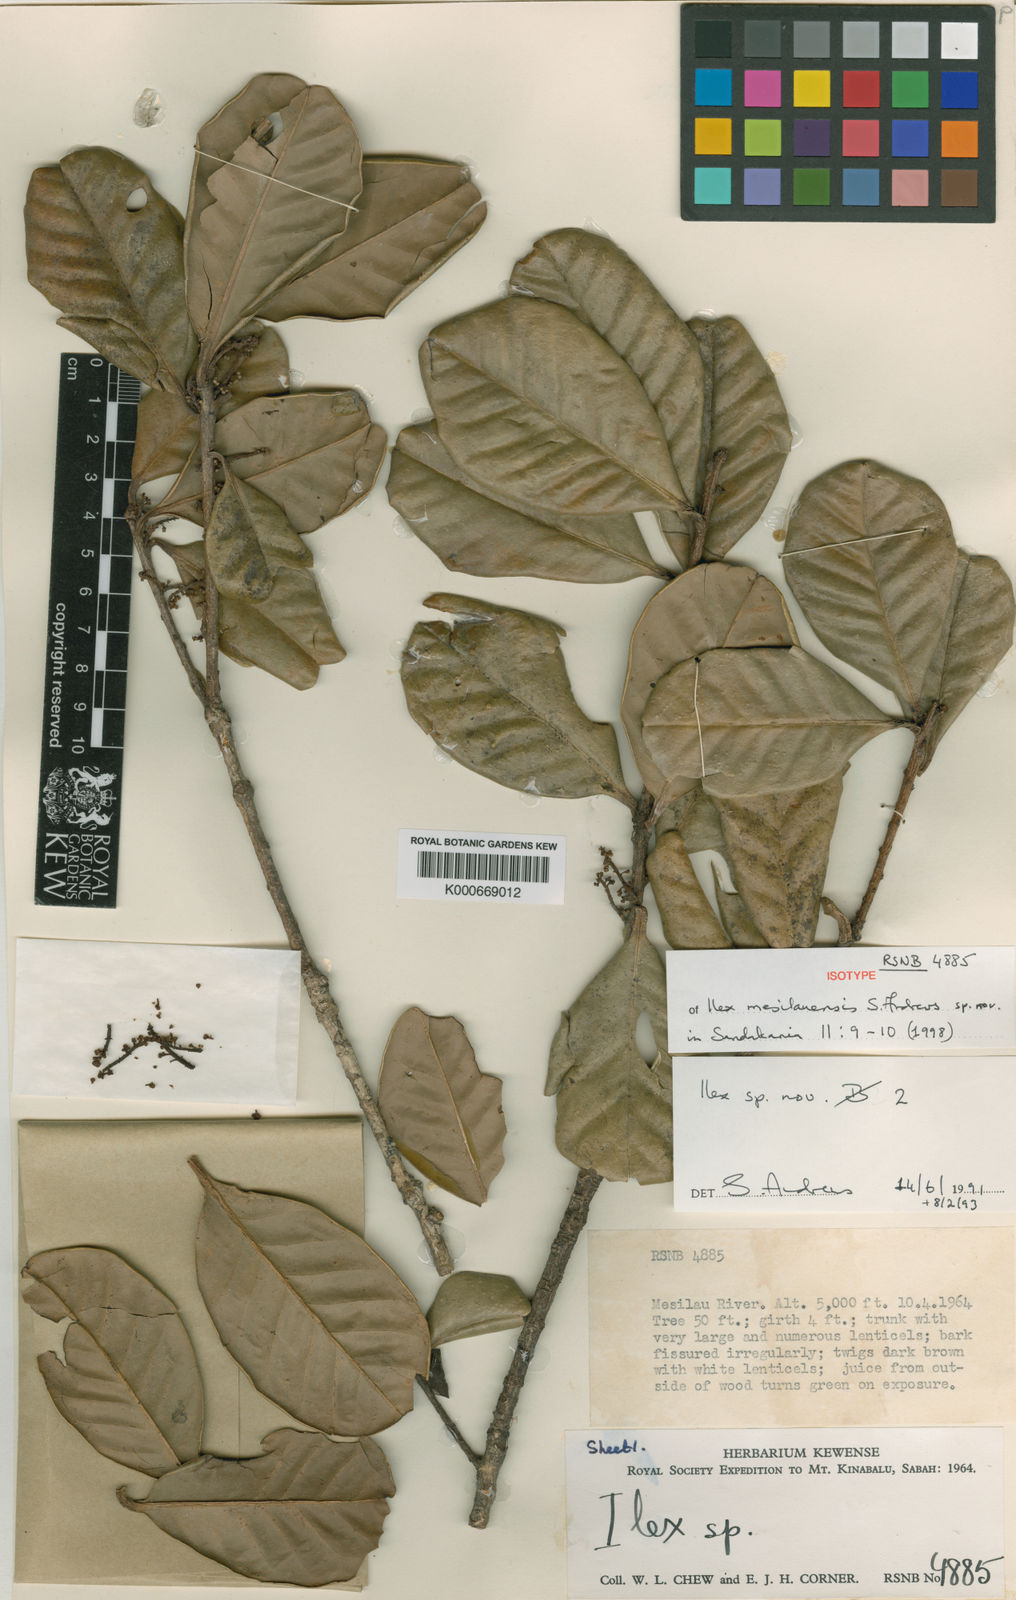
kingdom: Plantae
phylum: Tracheophyta
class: Magnoliopsida
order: Aquifoliales
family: Aquifoliaceae
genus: Ilex
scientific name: Ilex mesilauensis
